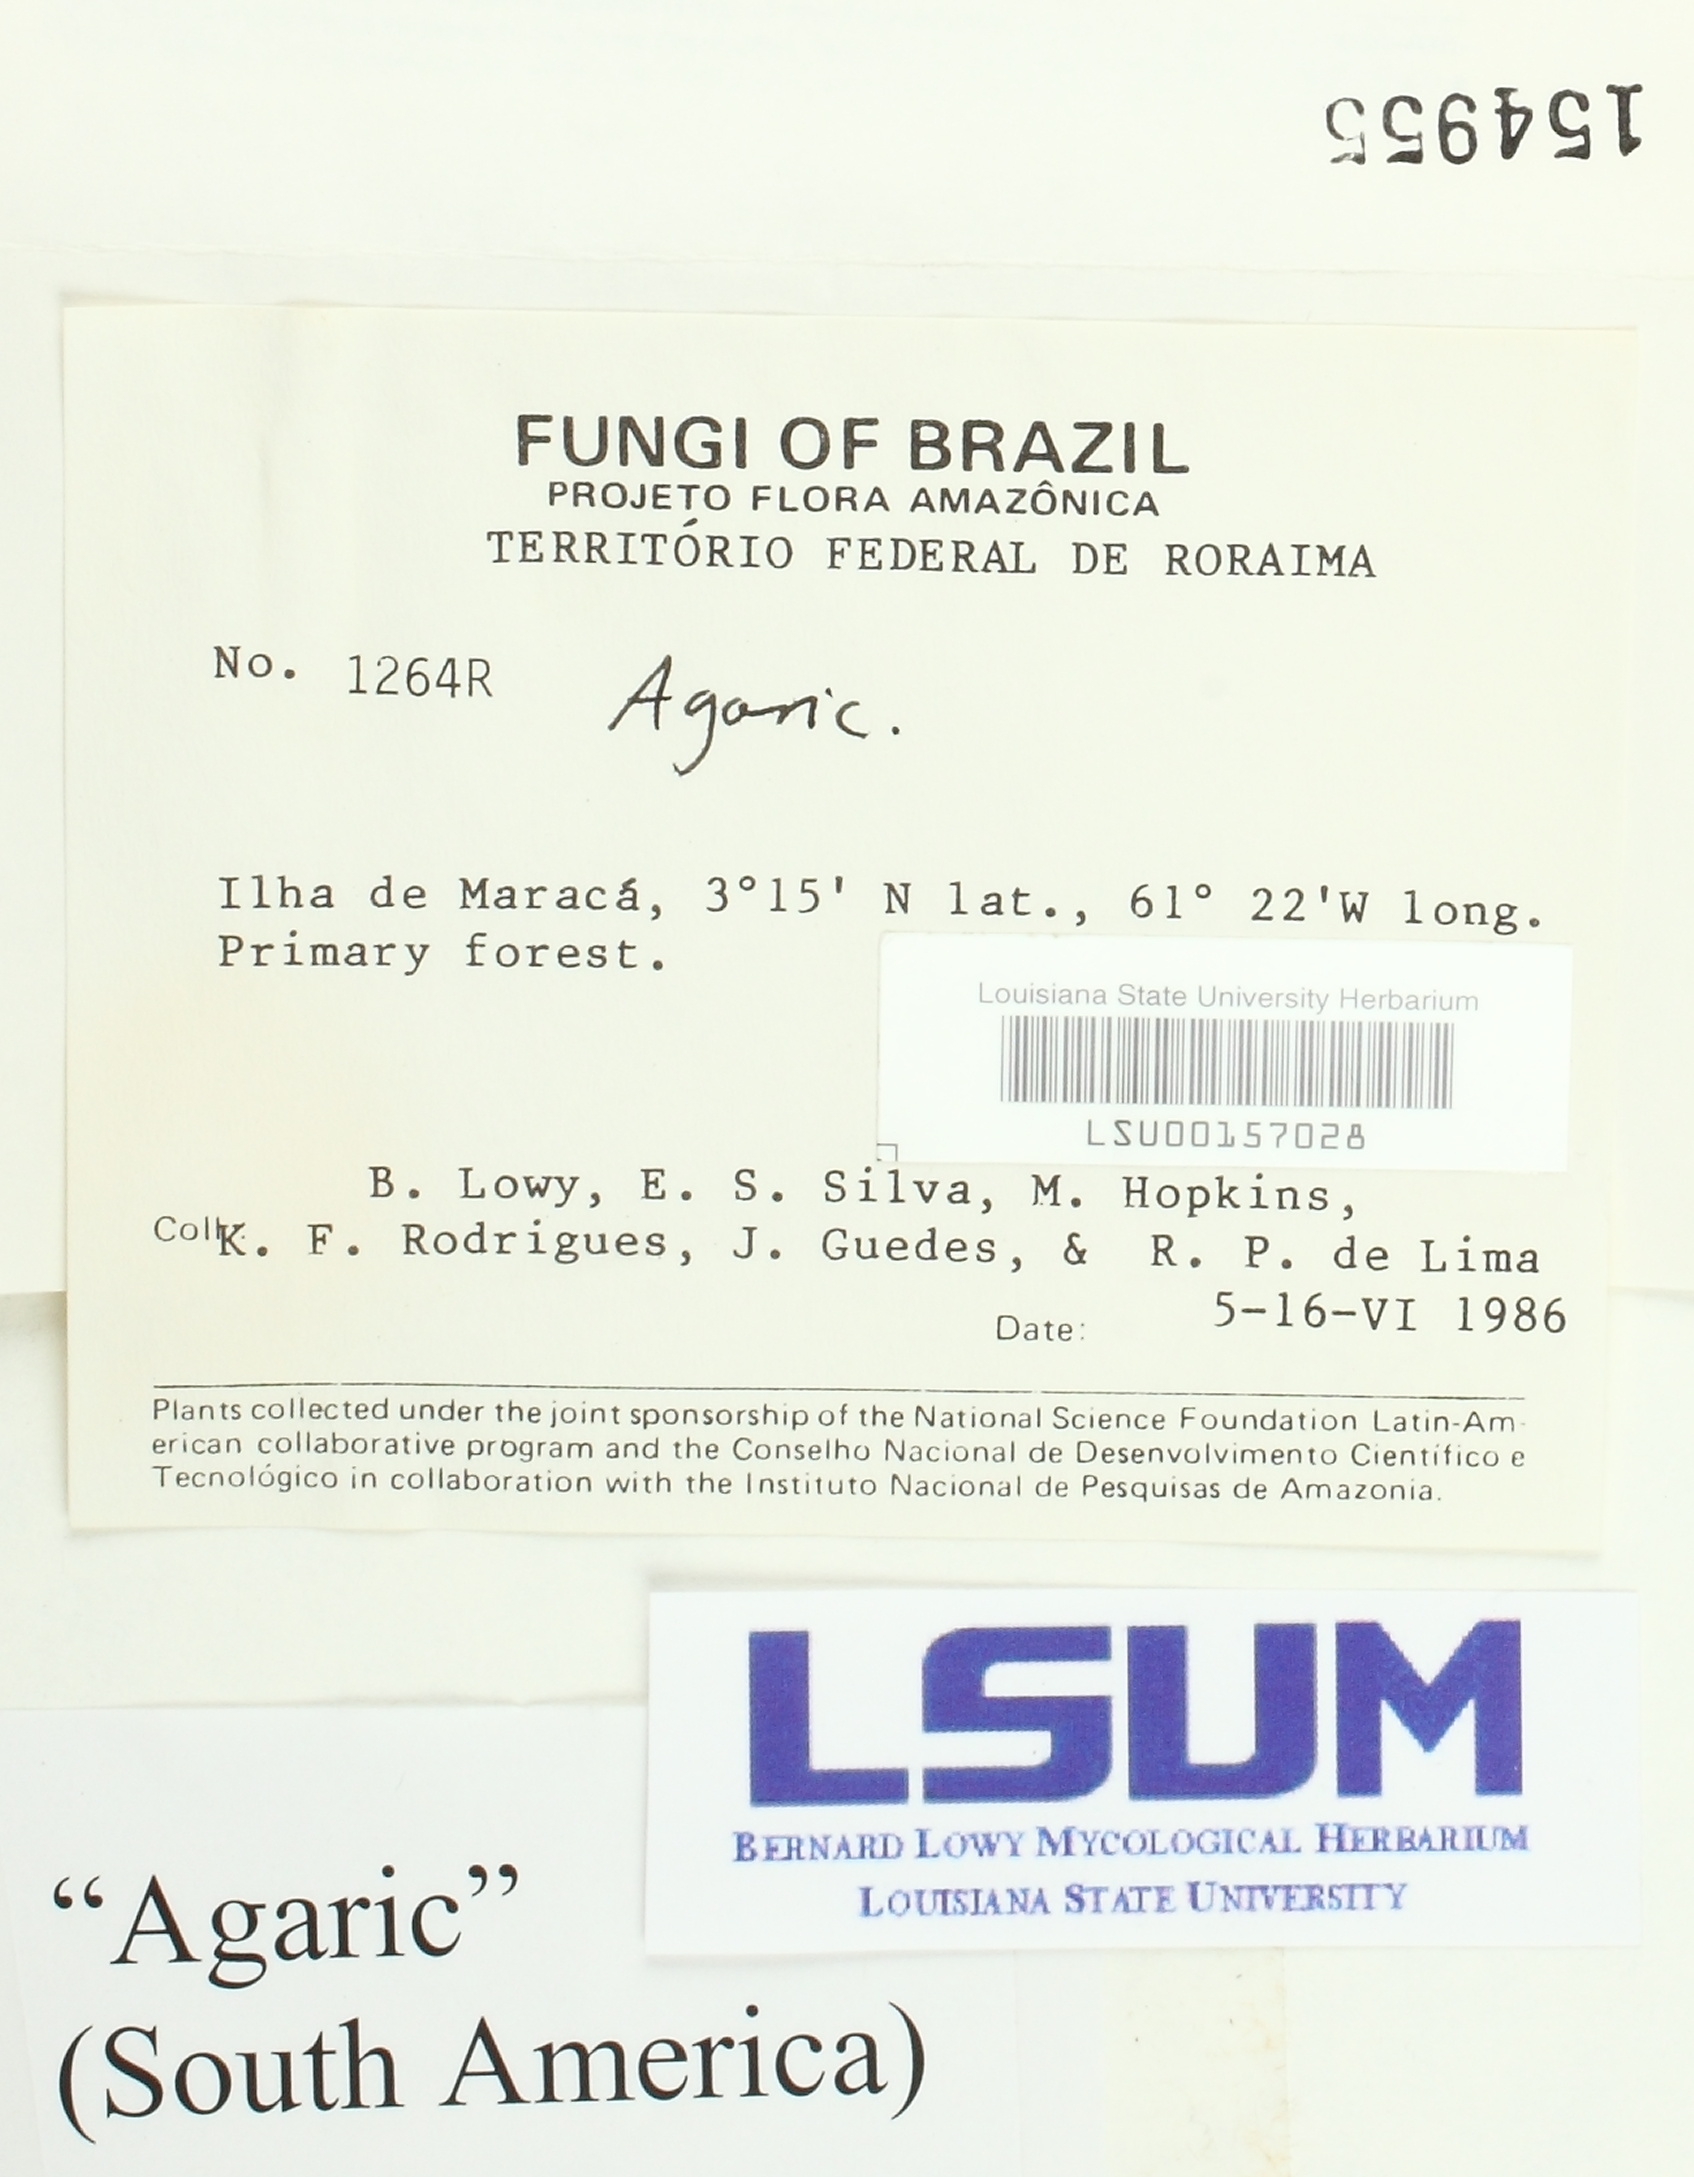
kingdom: Fungi
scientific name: Fungi
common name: Fungi
